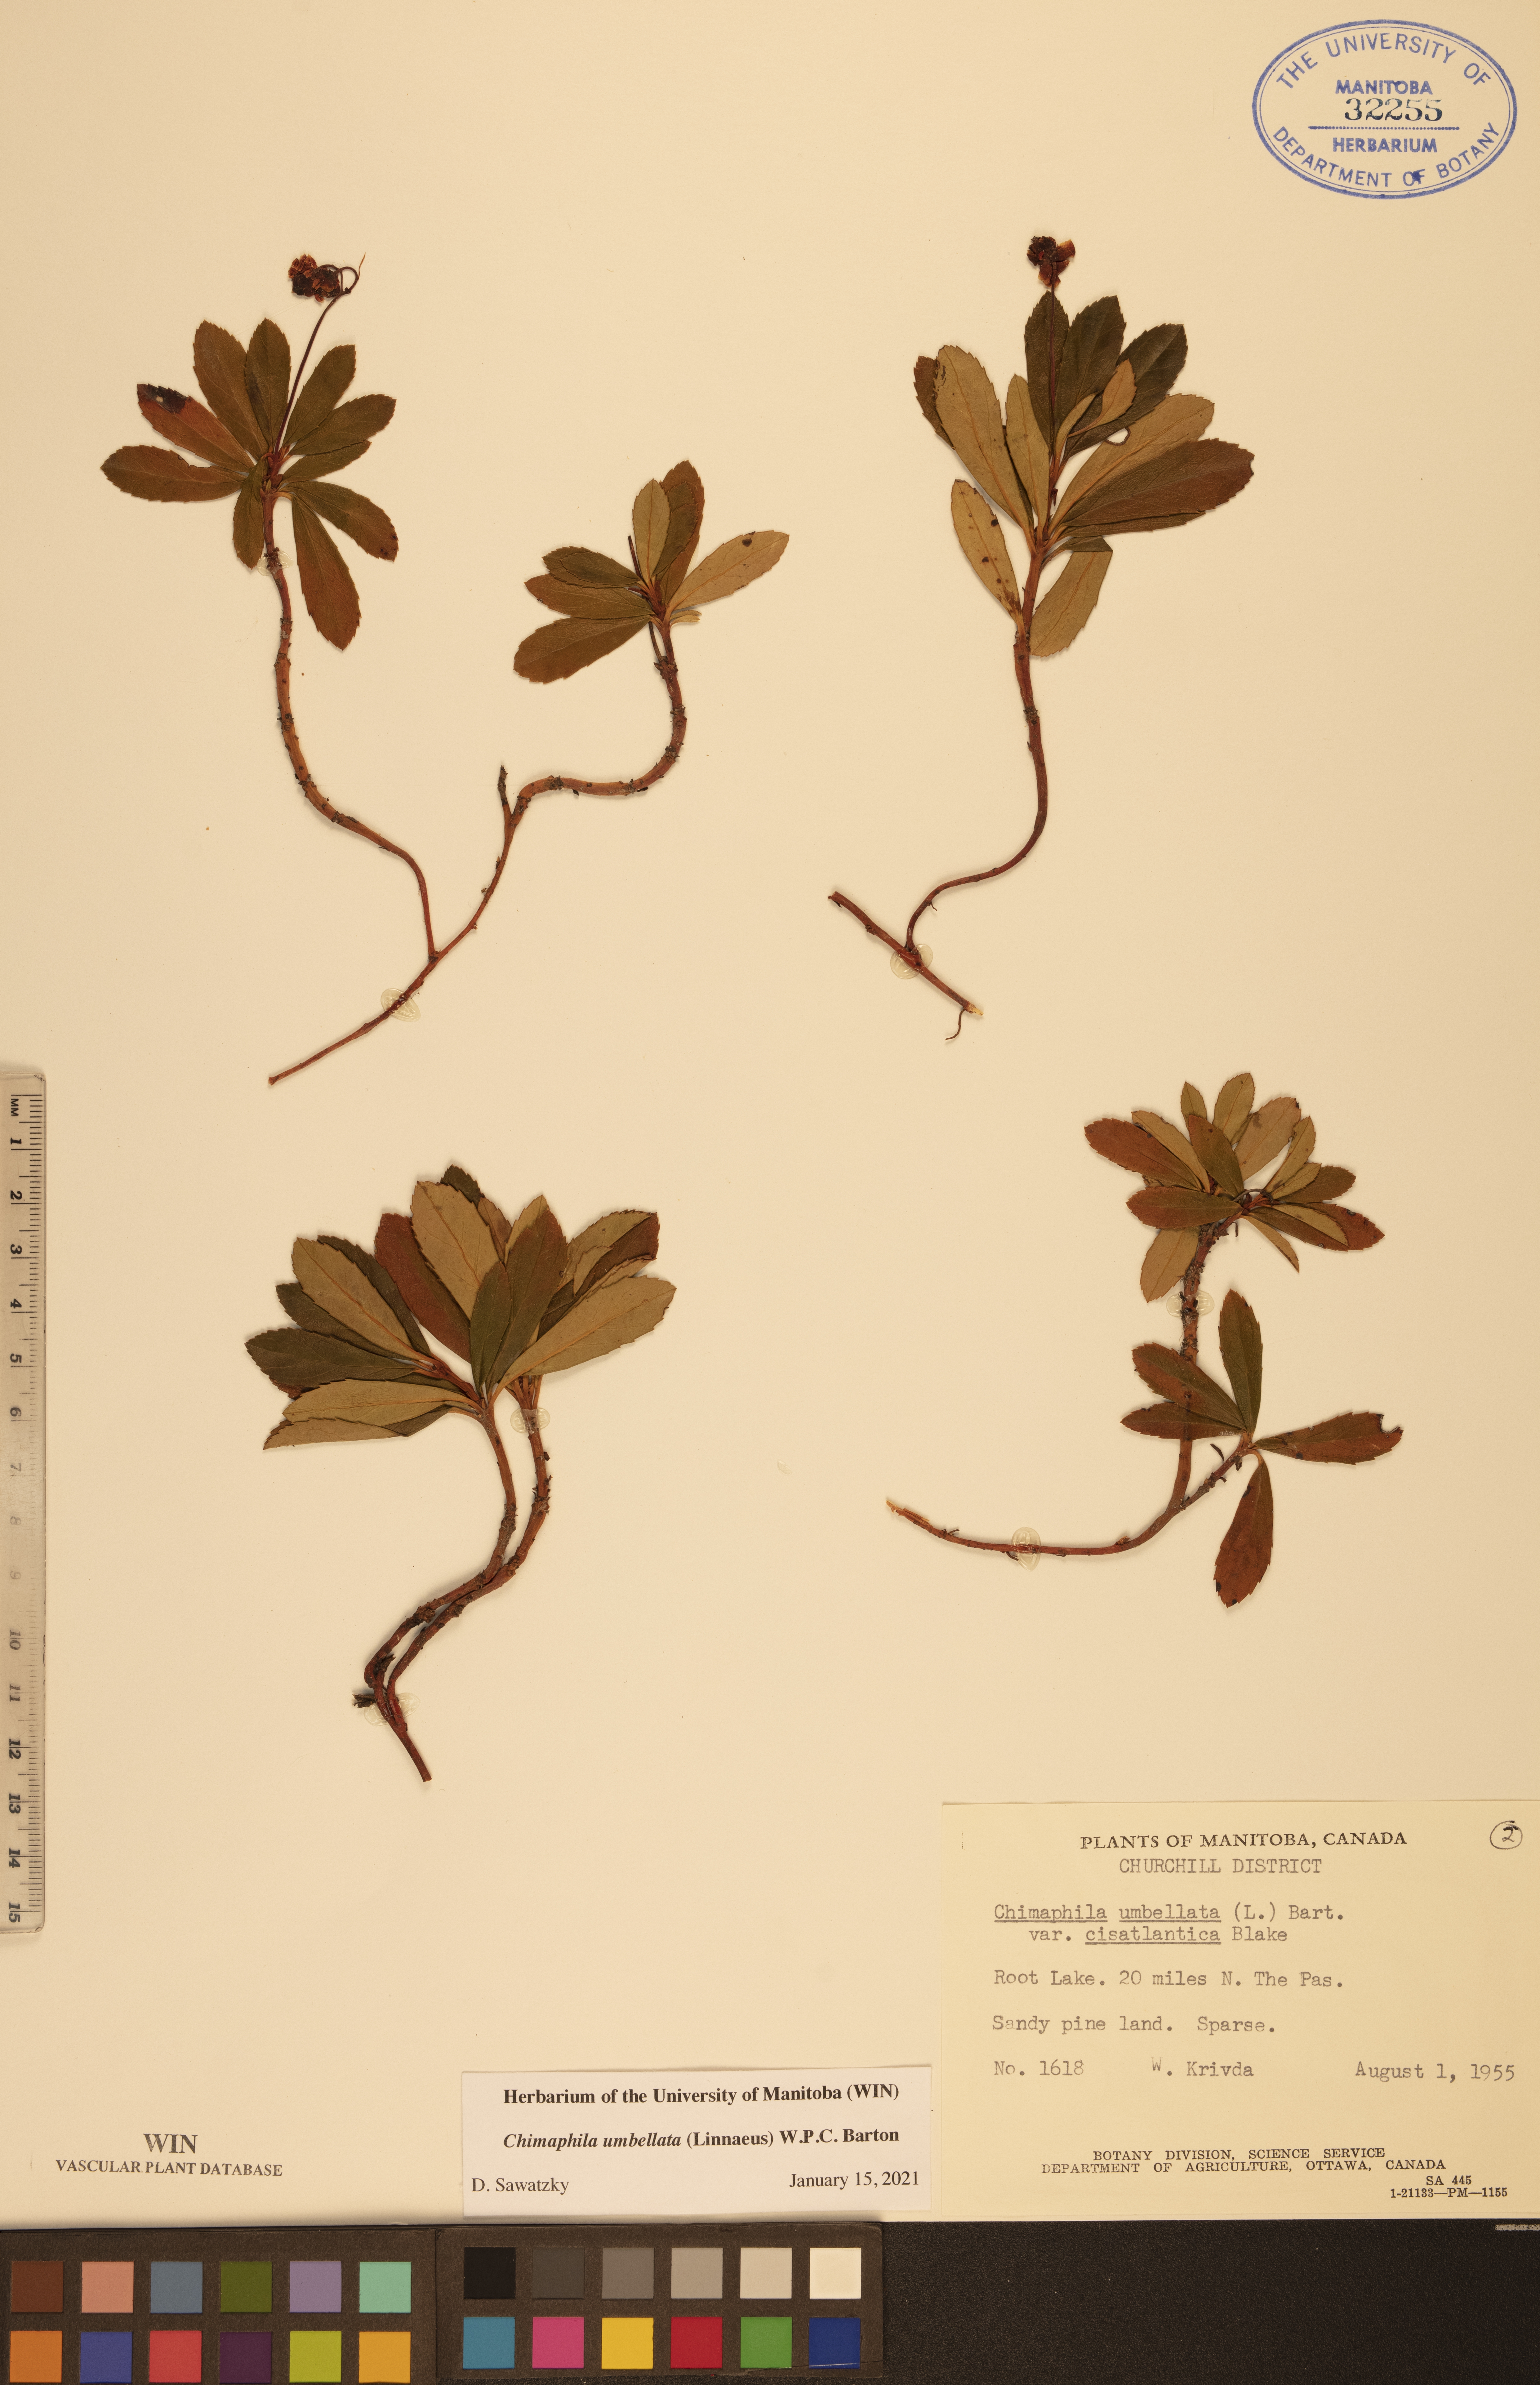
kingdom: Plantae
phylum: Tracheophyta
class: Magnoliopsida
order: Ericales
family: Ericaceae
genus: Chimaphila
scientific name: Chimaphila umbellata
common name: Pipsissewa
